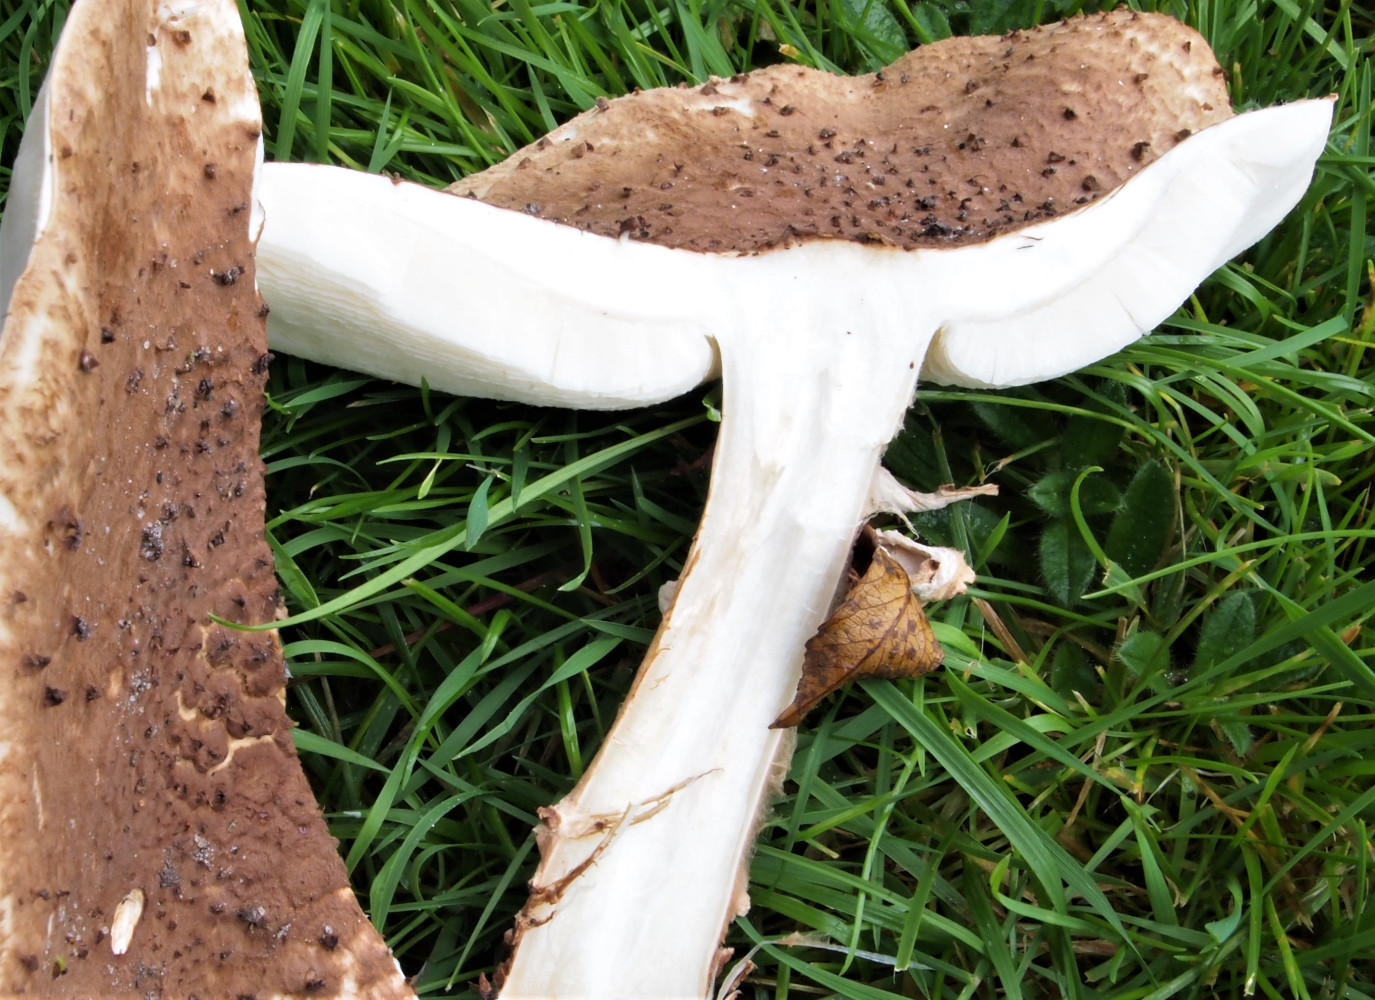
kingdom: Fungi
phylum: Basidiomycota
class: Agaricomycetes
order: Agaricales
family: Agaricaceae
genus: Echinoderma
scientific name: Echinoderma asperum
